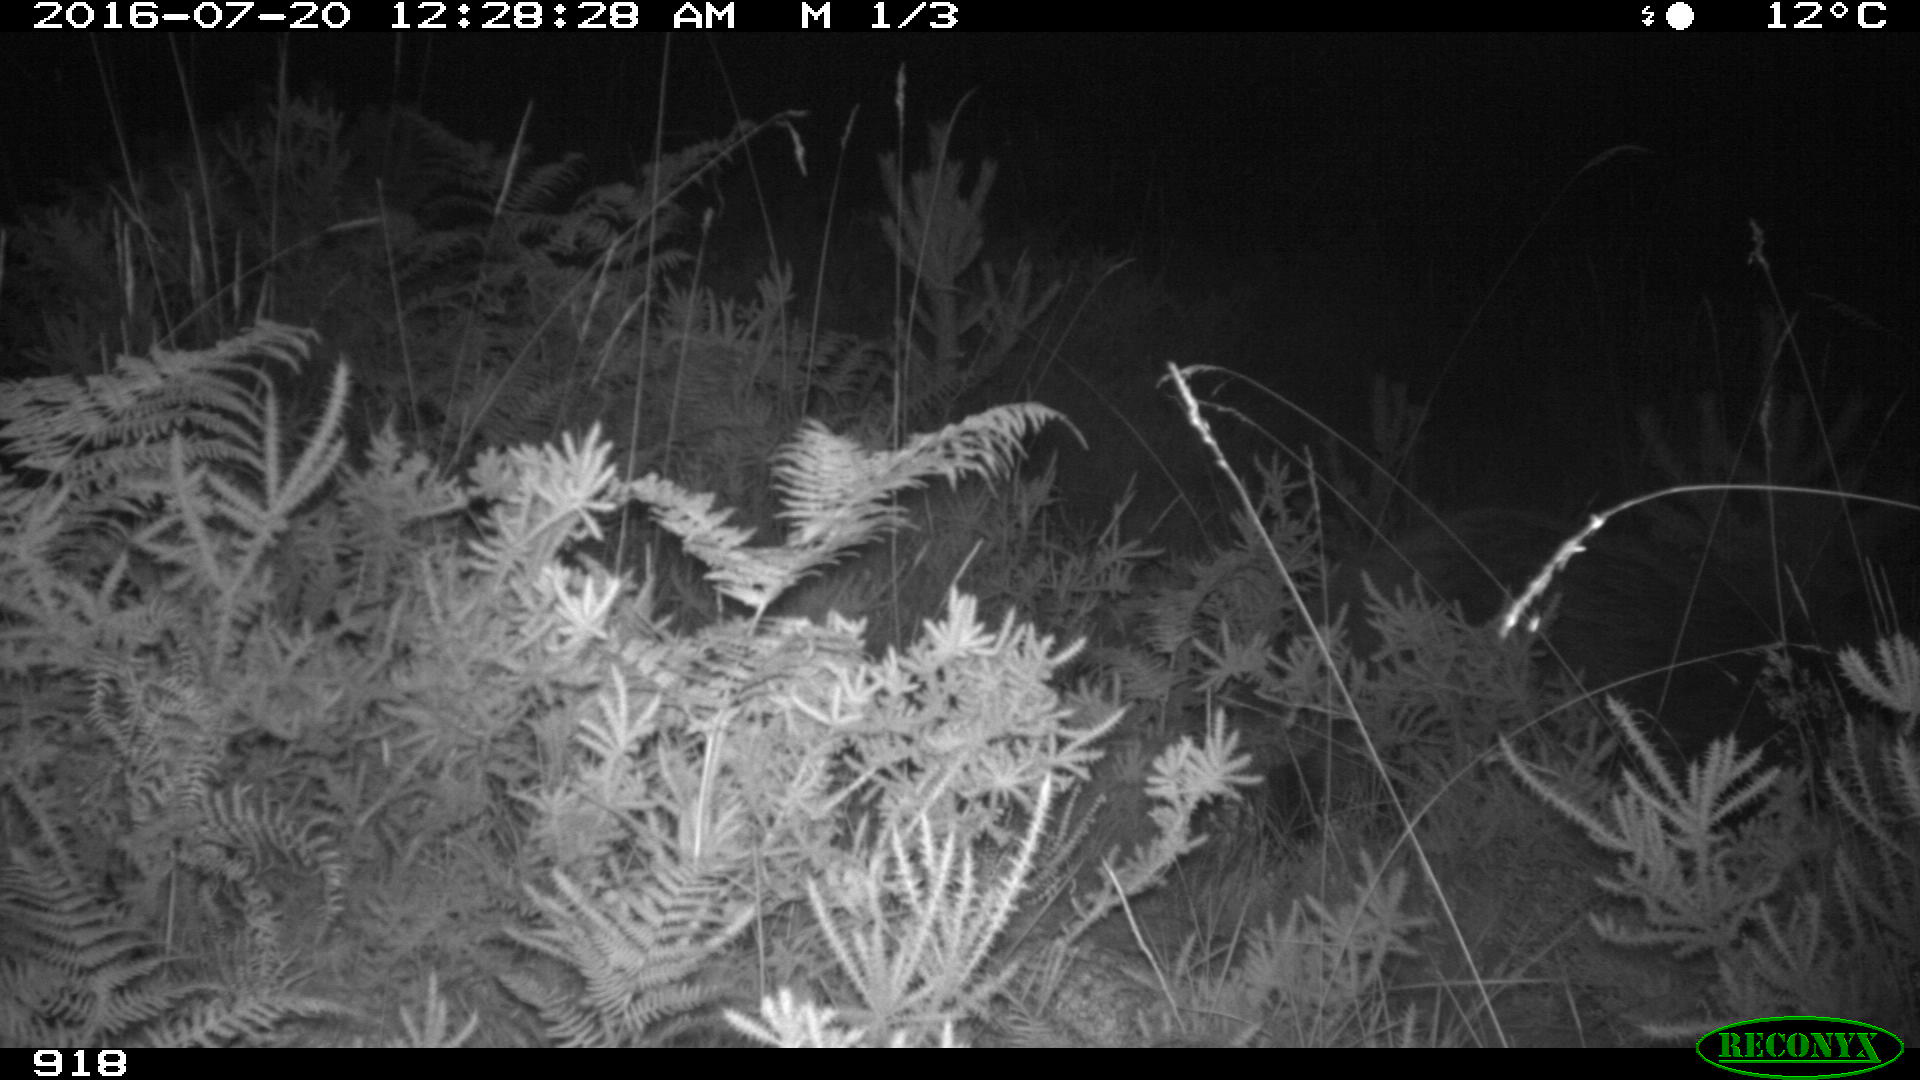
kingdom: Animalia
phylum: Chordata
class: Mammalia
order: Artiodactyla
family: Suidae
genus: Sus
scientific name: Sus scrofa
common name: Wild boar
